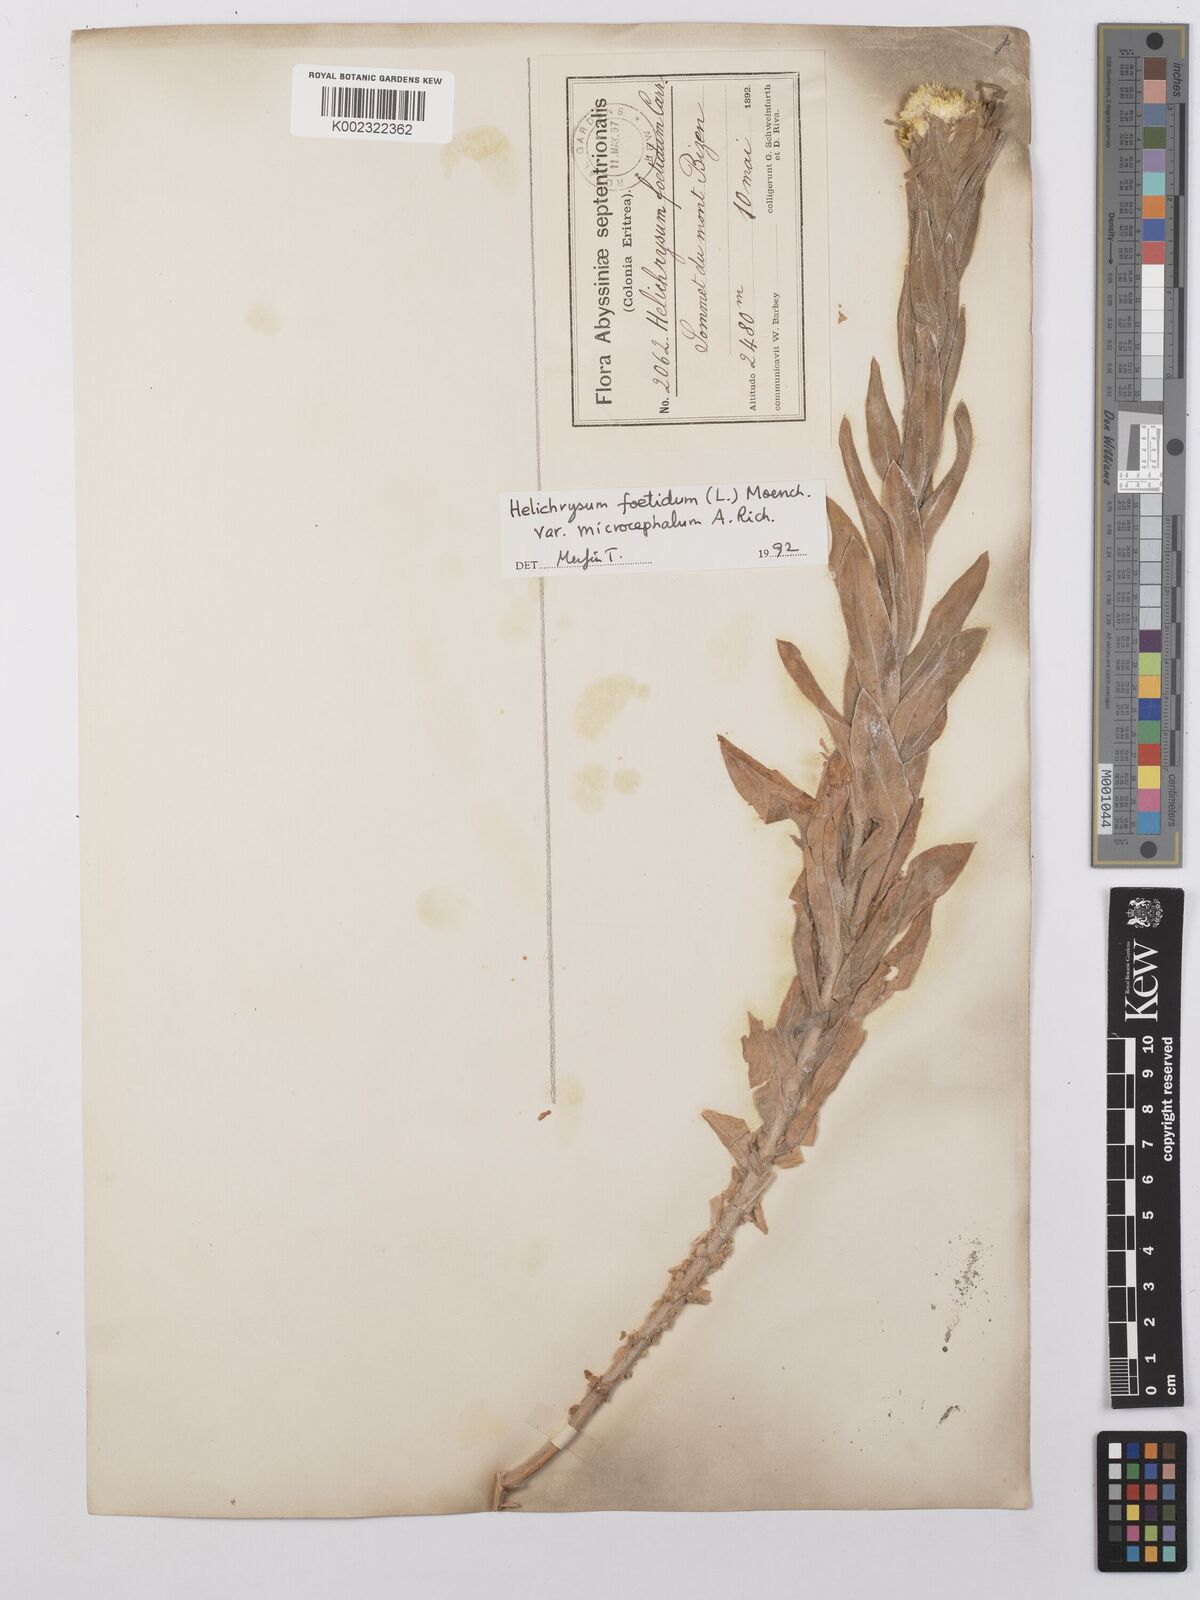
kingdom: Plantae
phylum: Tracheophyta
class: Magnoliopsida
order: Asterales
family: Asteraceae
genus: Helichrysum
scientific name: Helichrysum foetidum
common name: Stinking everlasting
